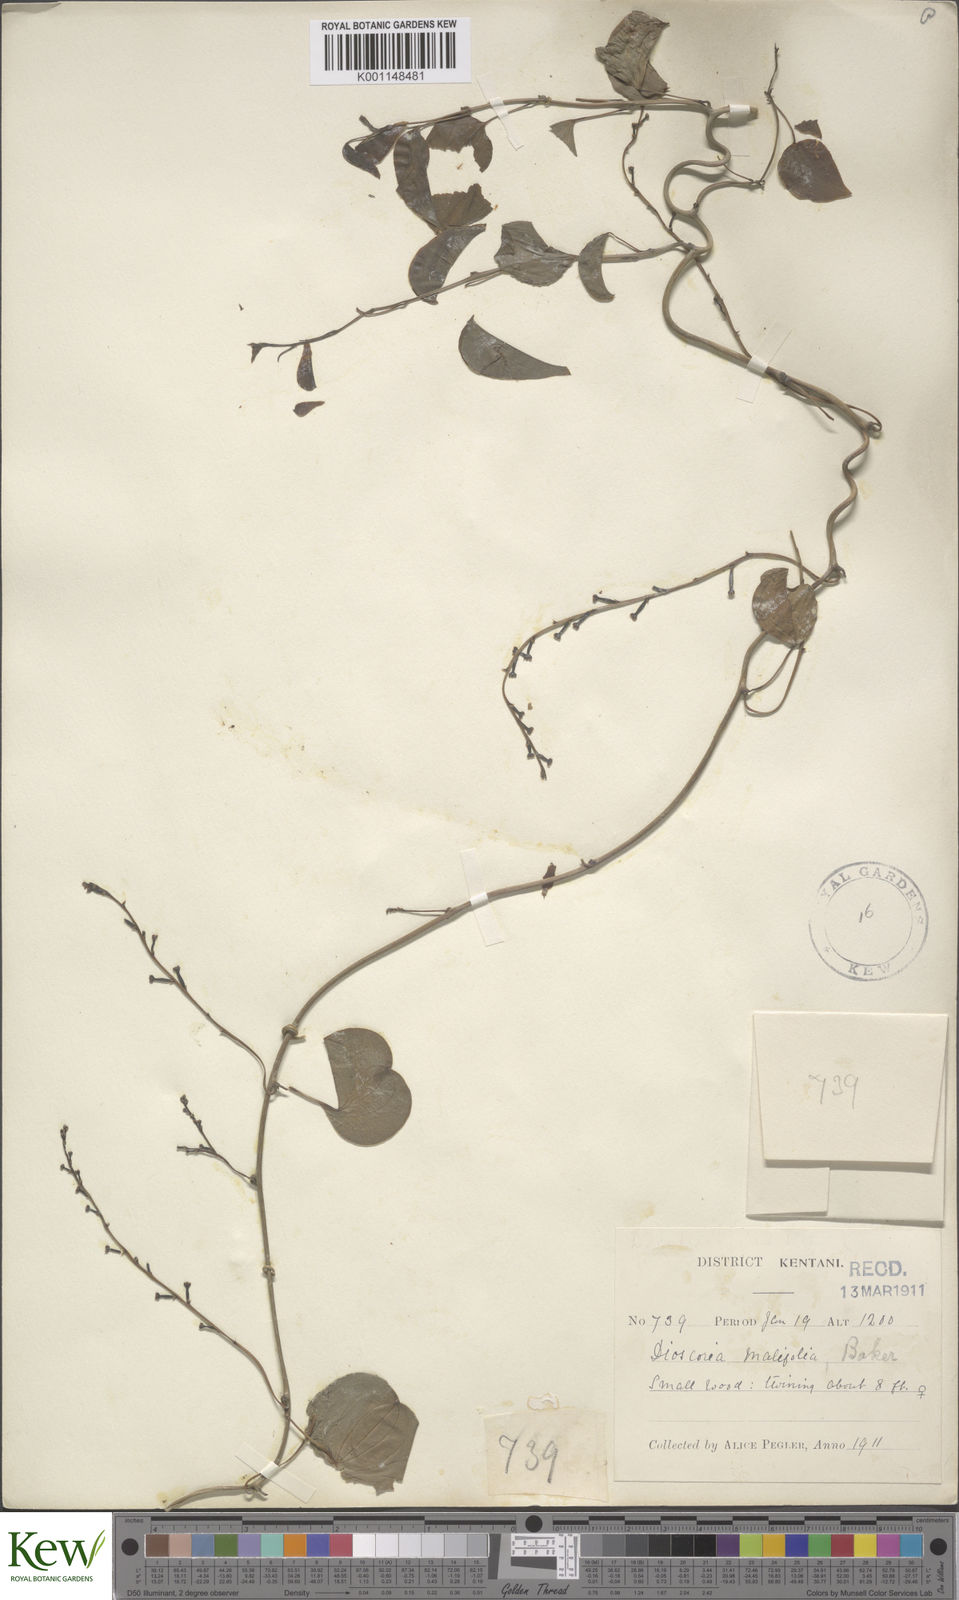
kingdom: Plantae
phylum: Tracheophyta
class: Liliopsida
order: Dioscoreales
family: Dioscoreaceae
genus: Dioscorea
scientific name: Dioscorea cotinifolia
